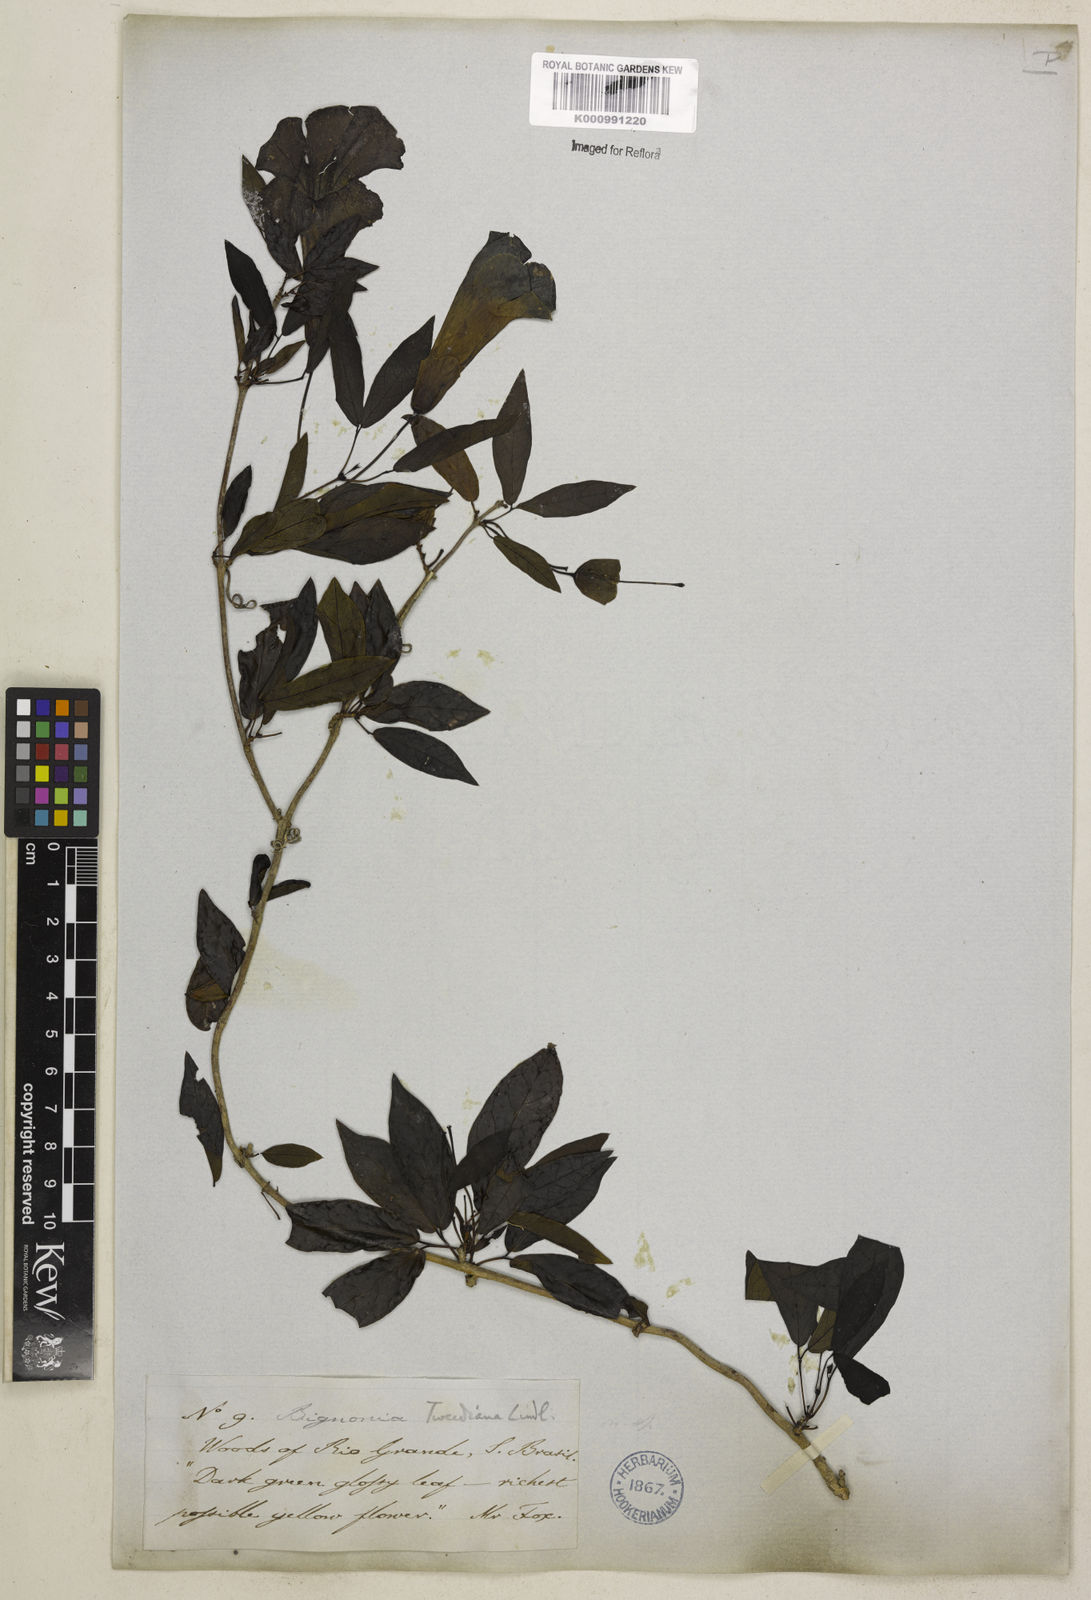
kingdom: Plantae
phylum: Tracheophyta
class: Magnoliopsida
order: Lamiales
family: Bignoniaceae
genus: Dolichandra
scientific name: Dolichandra unguis-cati
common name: Catclaw vine
